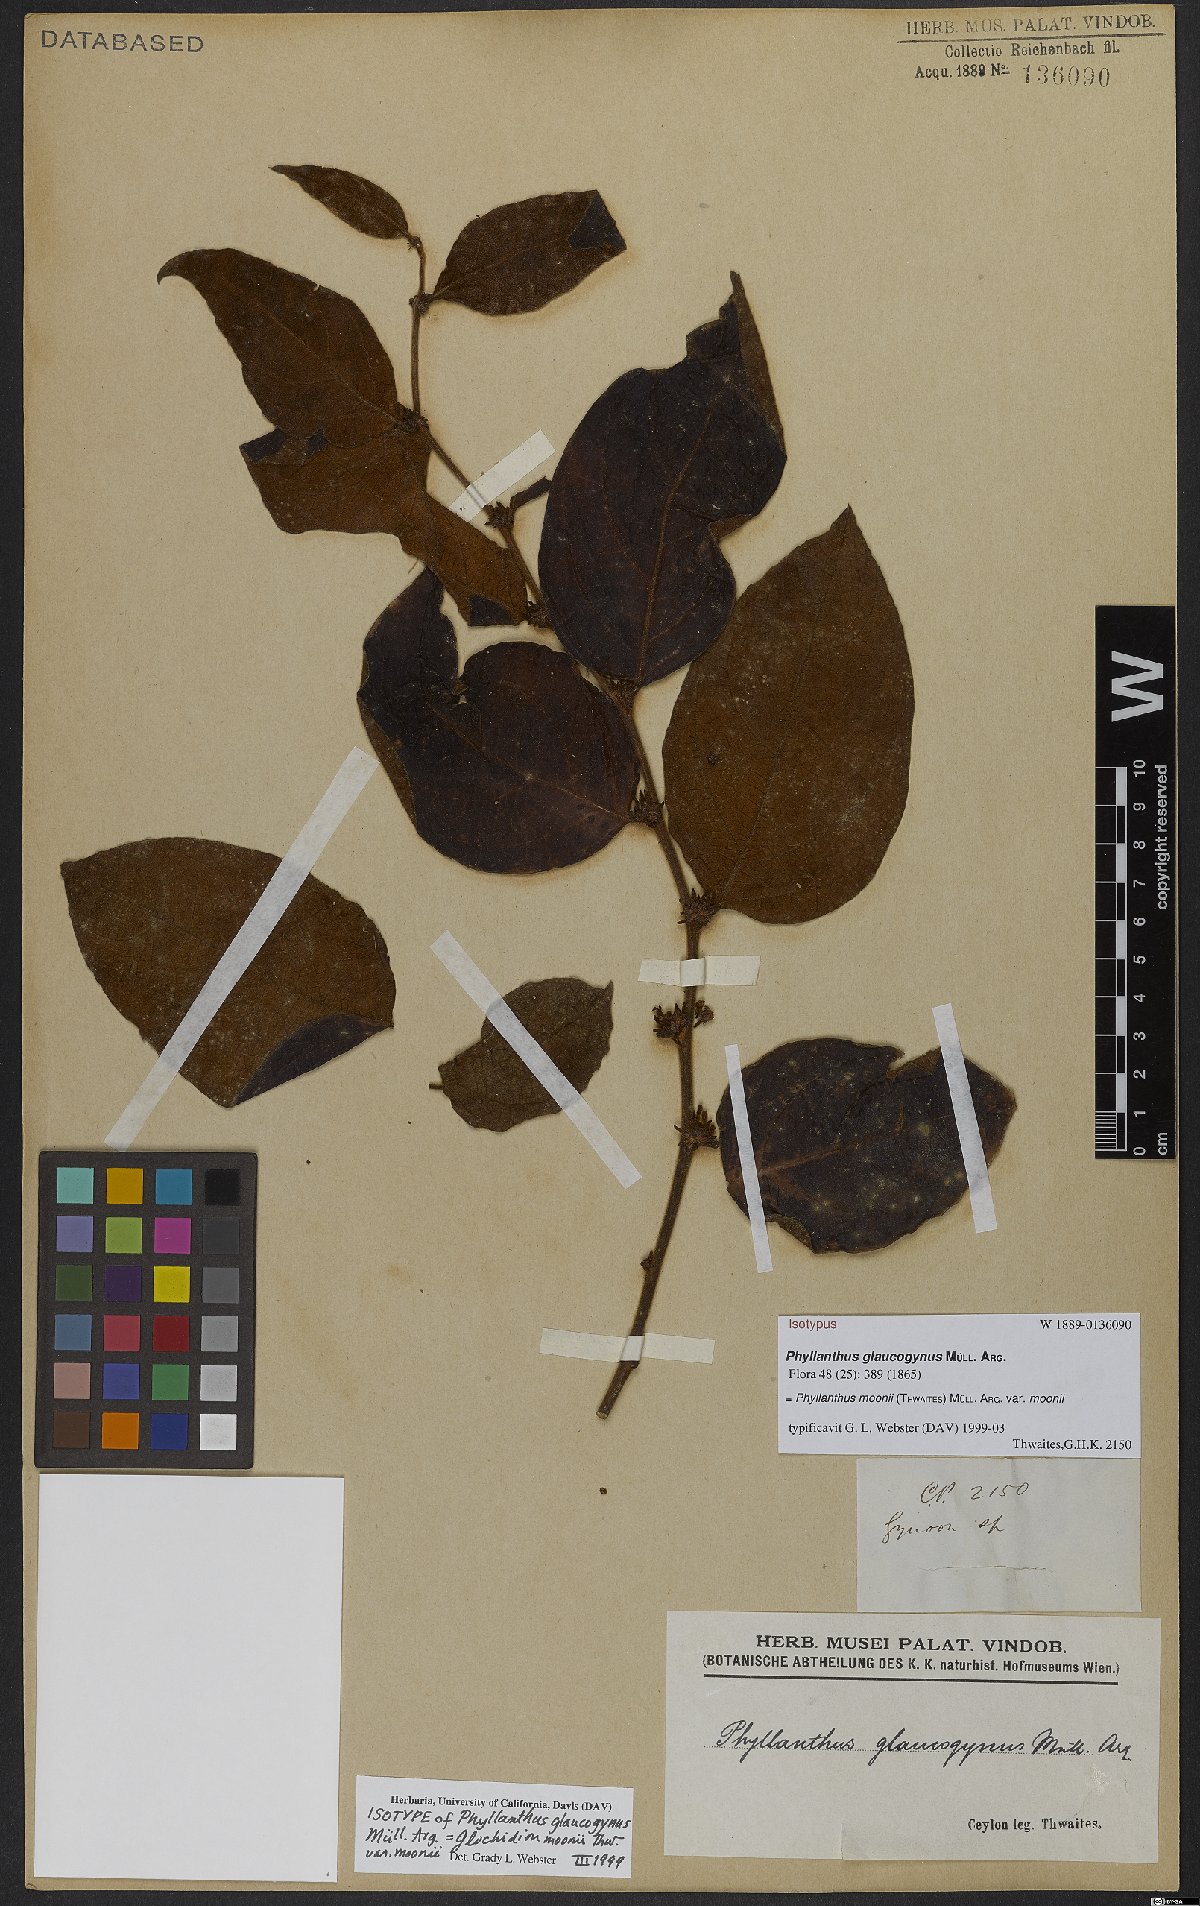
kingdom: Plantae
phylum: Tracheophyta
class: Magnoliopsida
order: Malpighiales
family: Phyllanthaceae
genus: Glochidion
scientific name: Glochidion moonii
